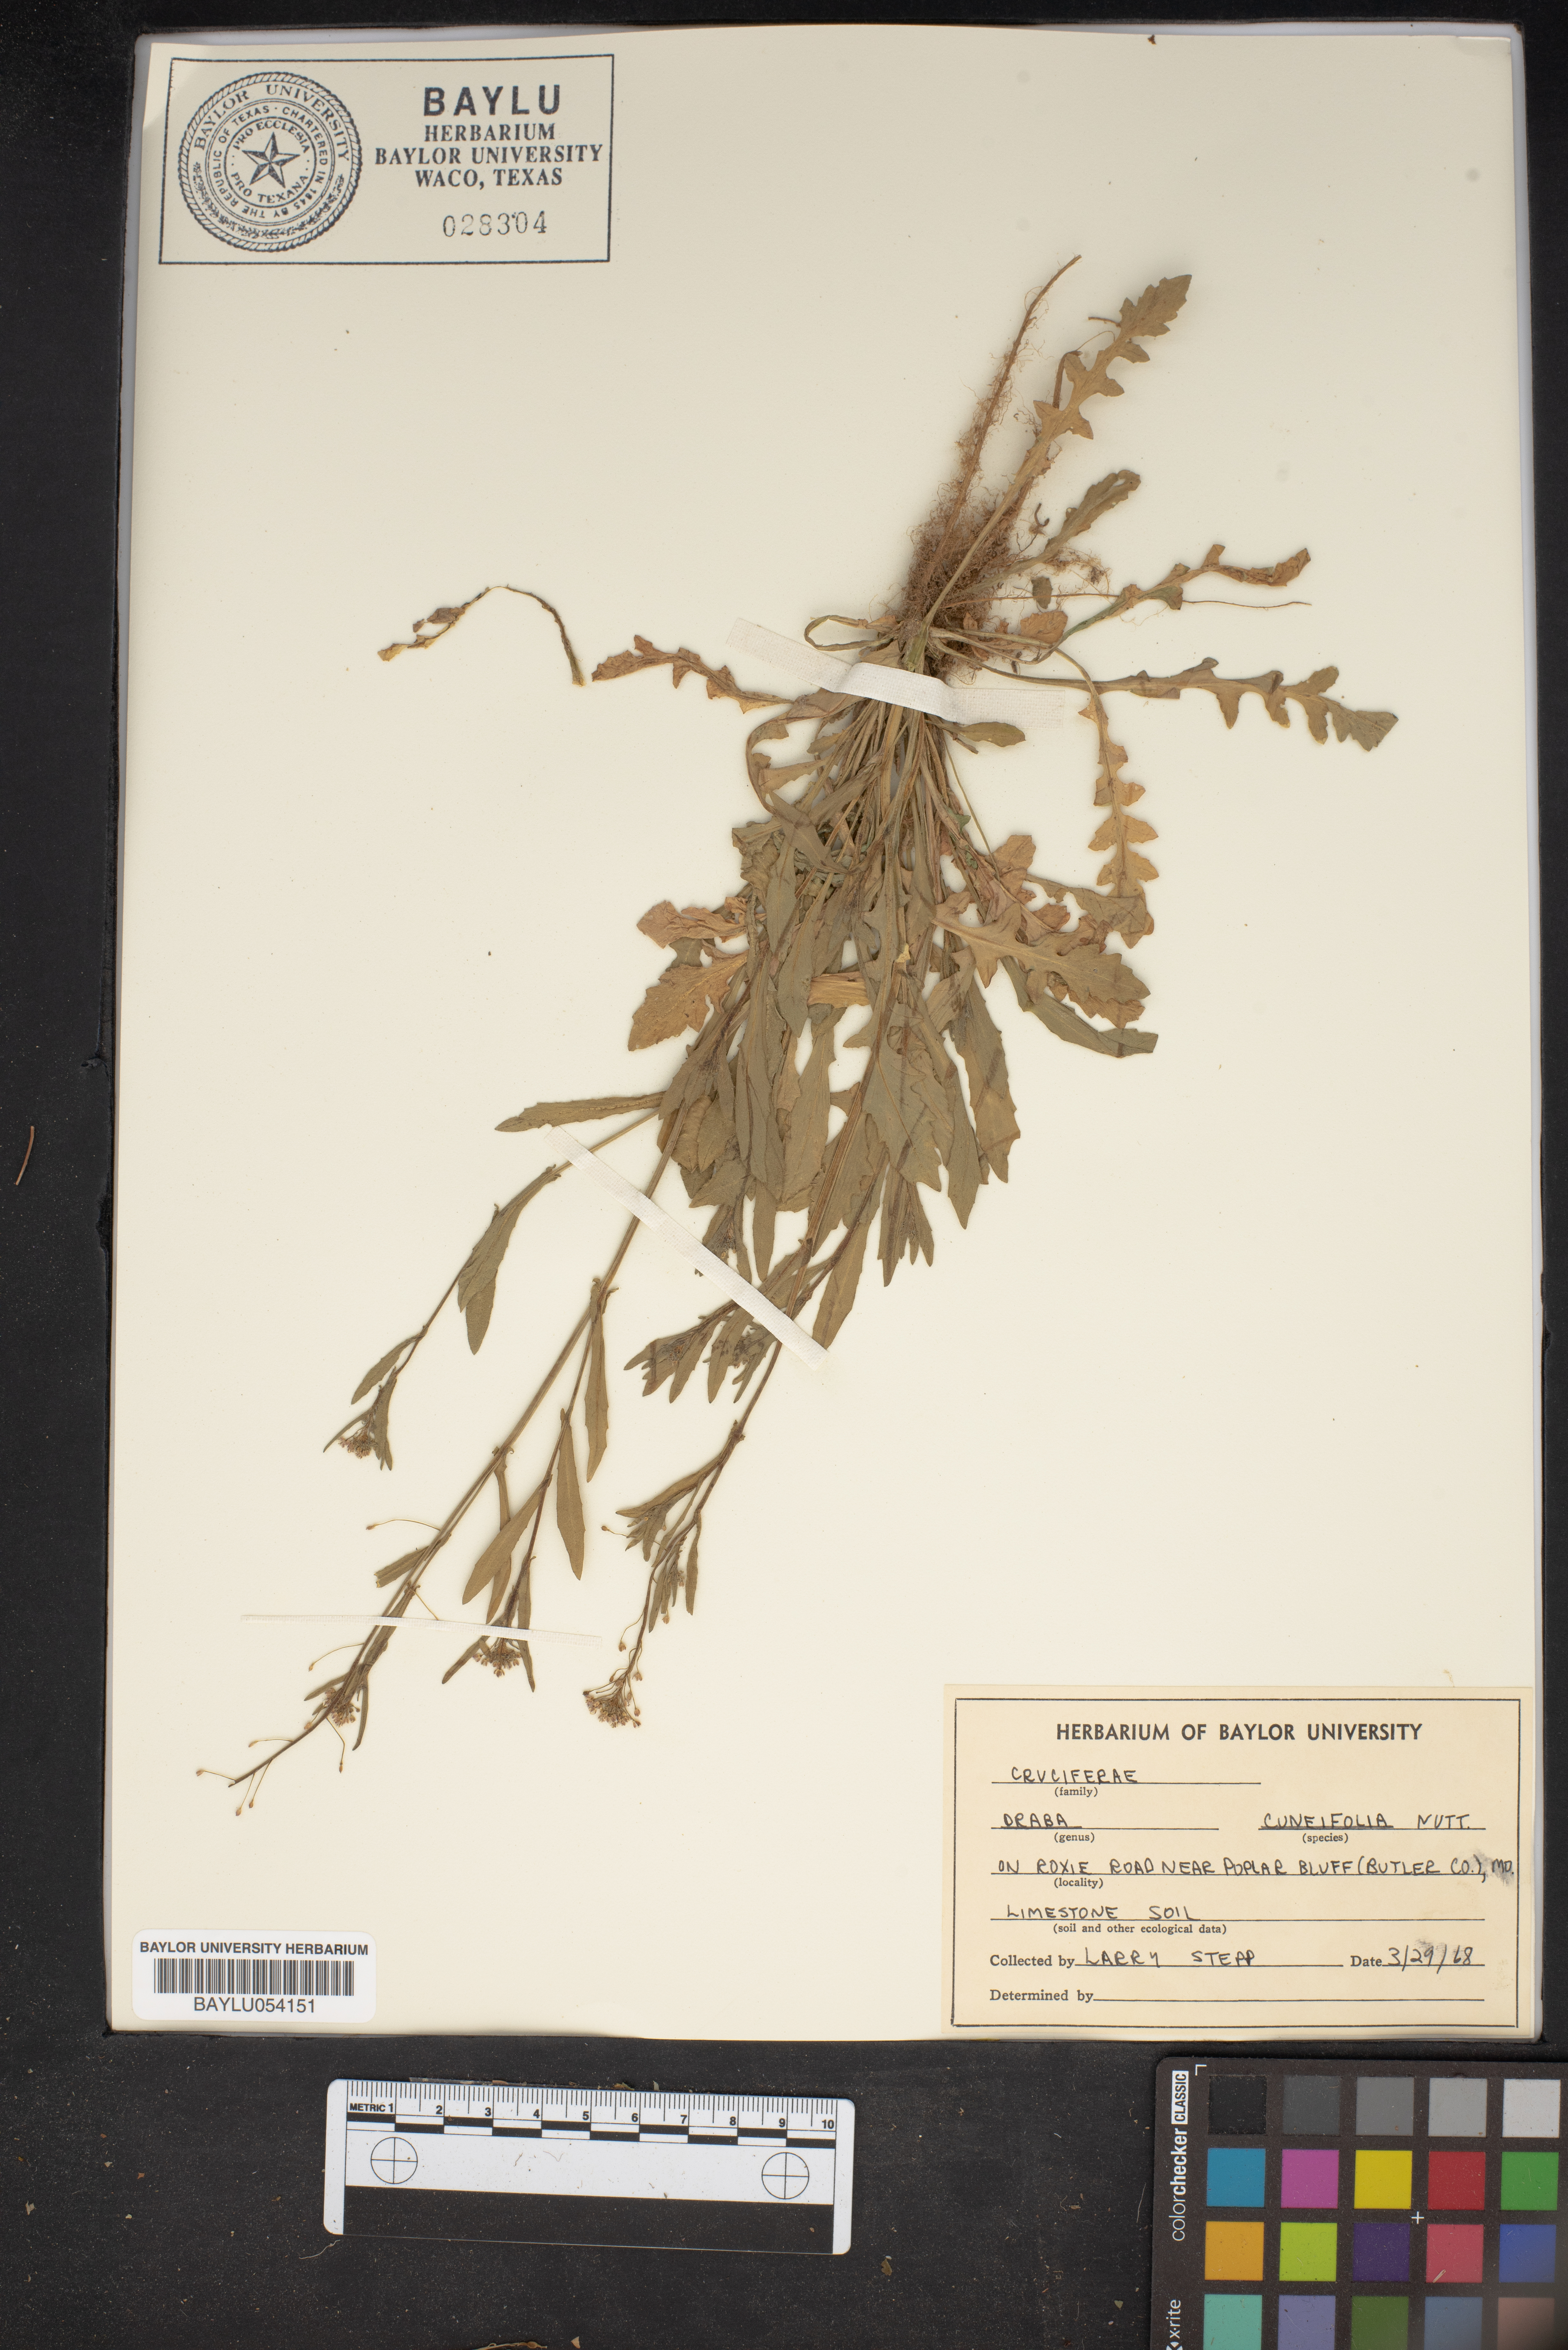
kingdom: Plantae
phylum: Tracheophyta
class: Magnoliopsida
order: Brassicales
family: Brassicaceae
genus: Tomostima
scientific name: Tomostima cuneifolia
